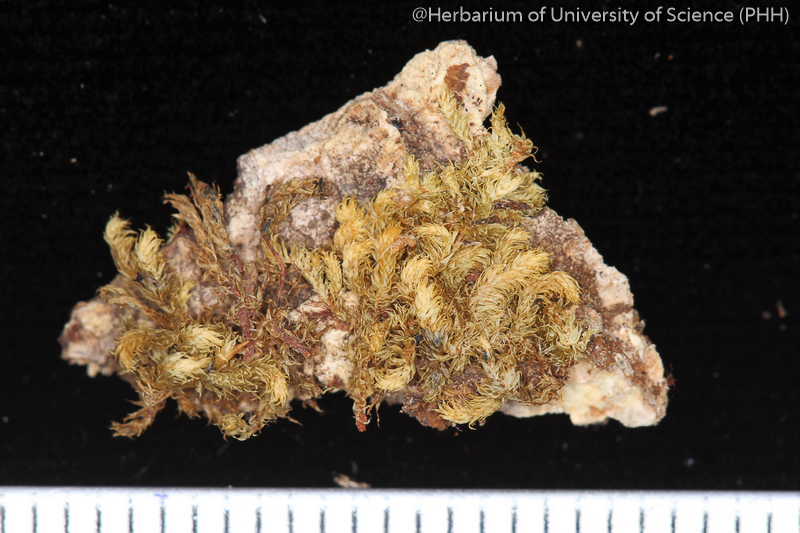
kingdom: Plantae
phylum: Bryophyta
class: Bryopsida
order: Dicranales
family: Leucobryaceae
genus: Ochrobryum
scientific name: Ochrobryum kurzianum
